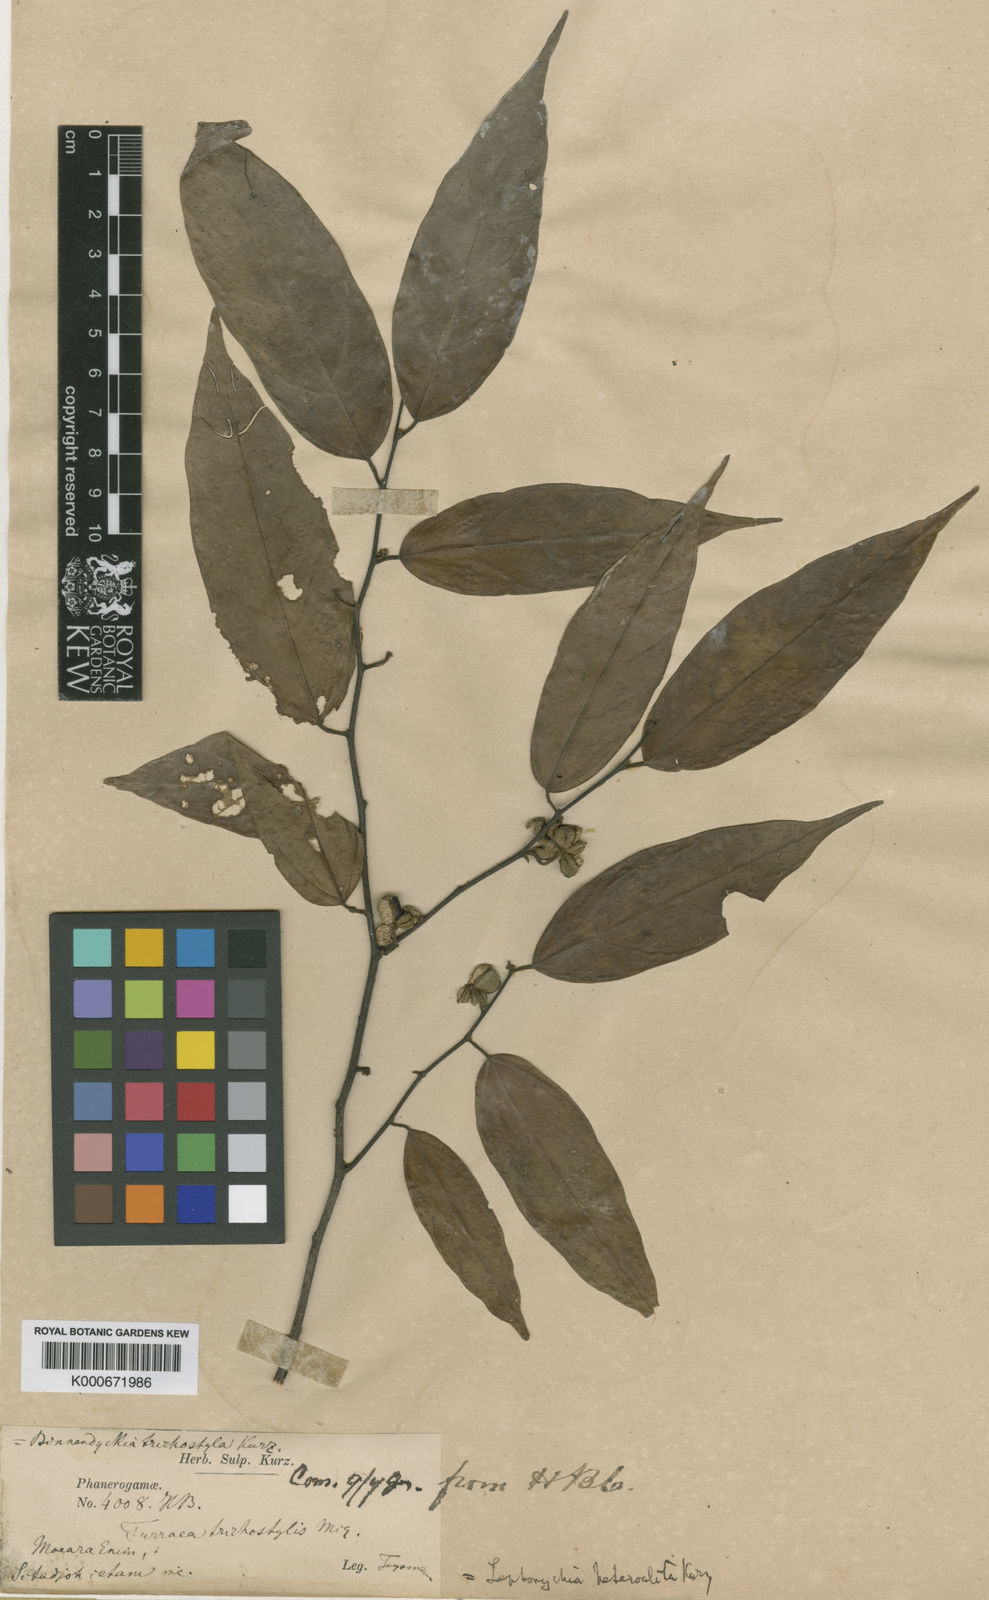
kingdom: Plantae
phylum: Tracheophyta
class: Magnoliopsida
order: Malvales
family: Malvaceae
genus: Leptonychia
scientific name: Leptonychia caudata
